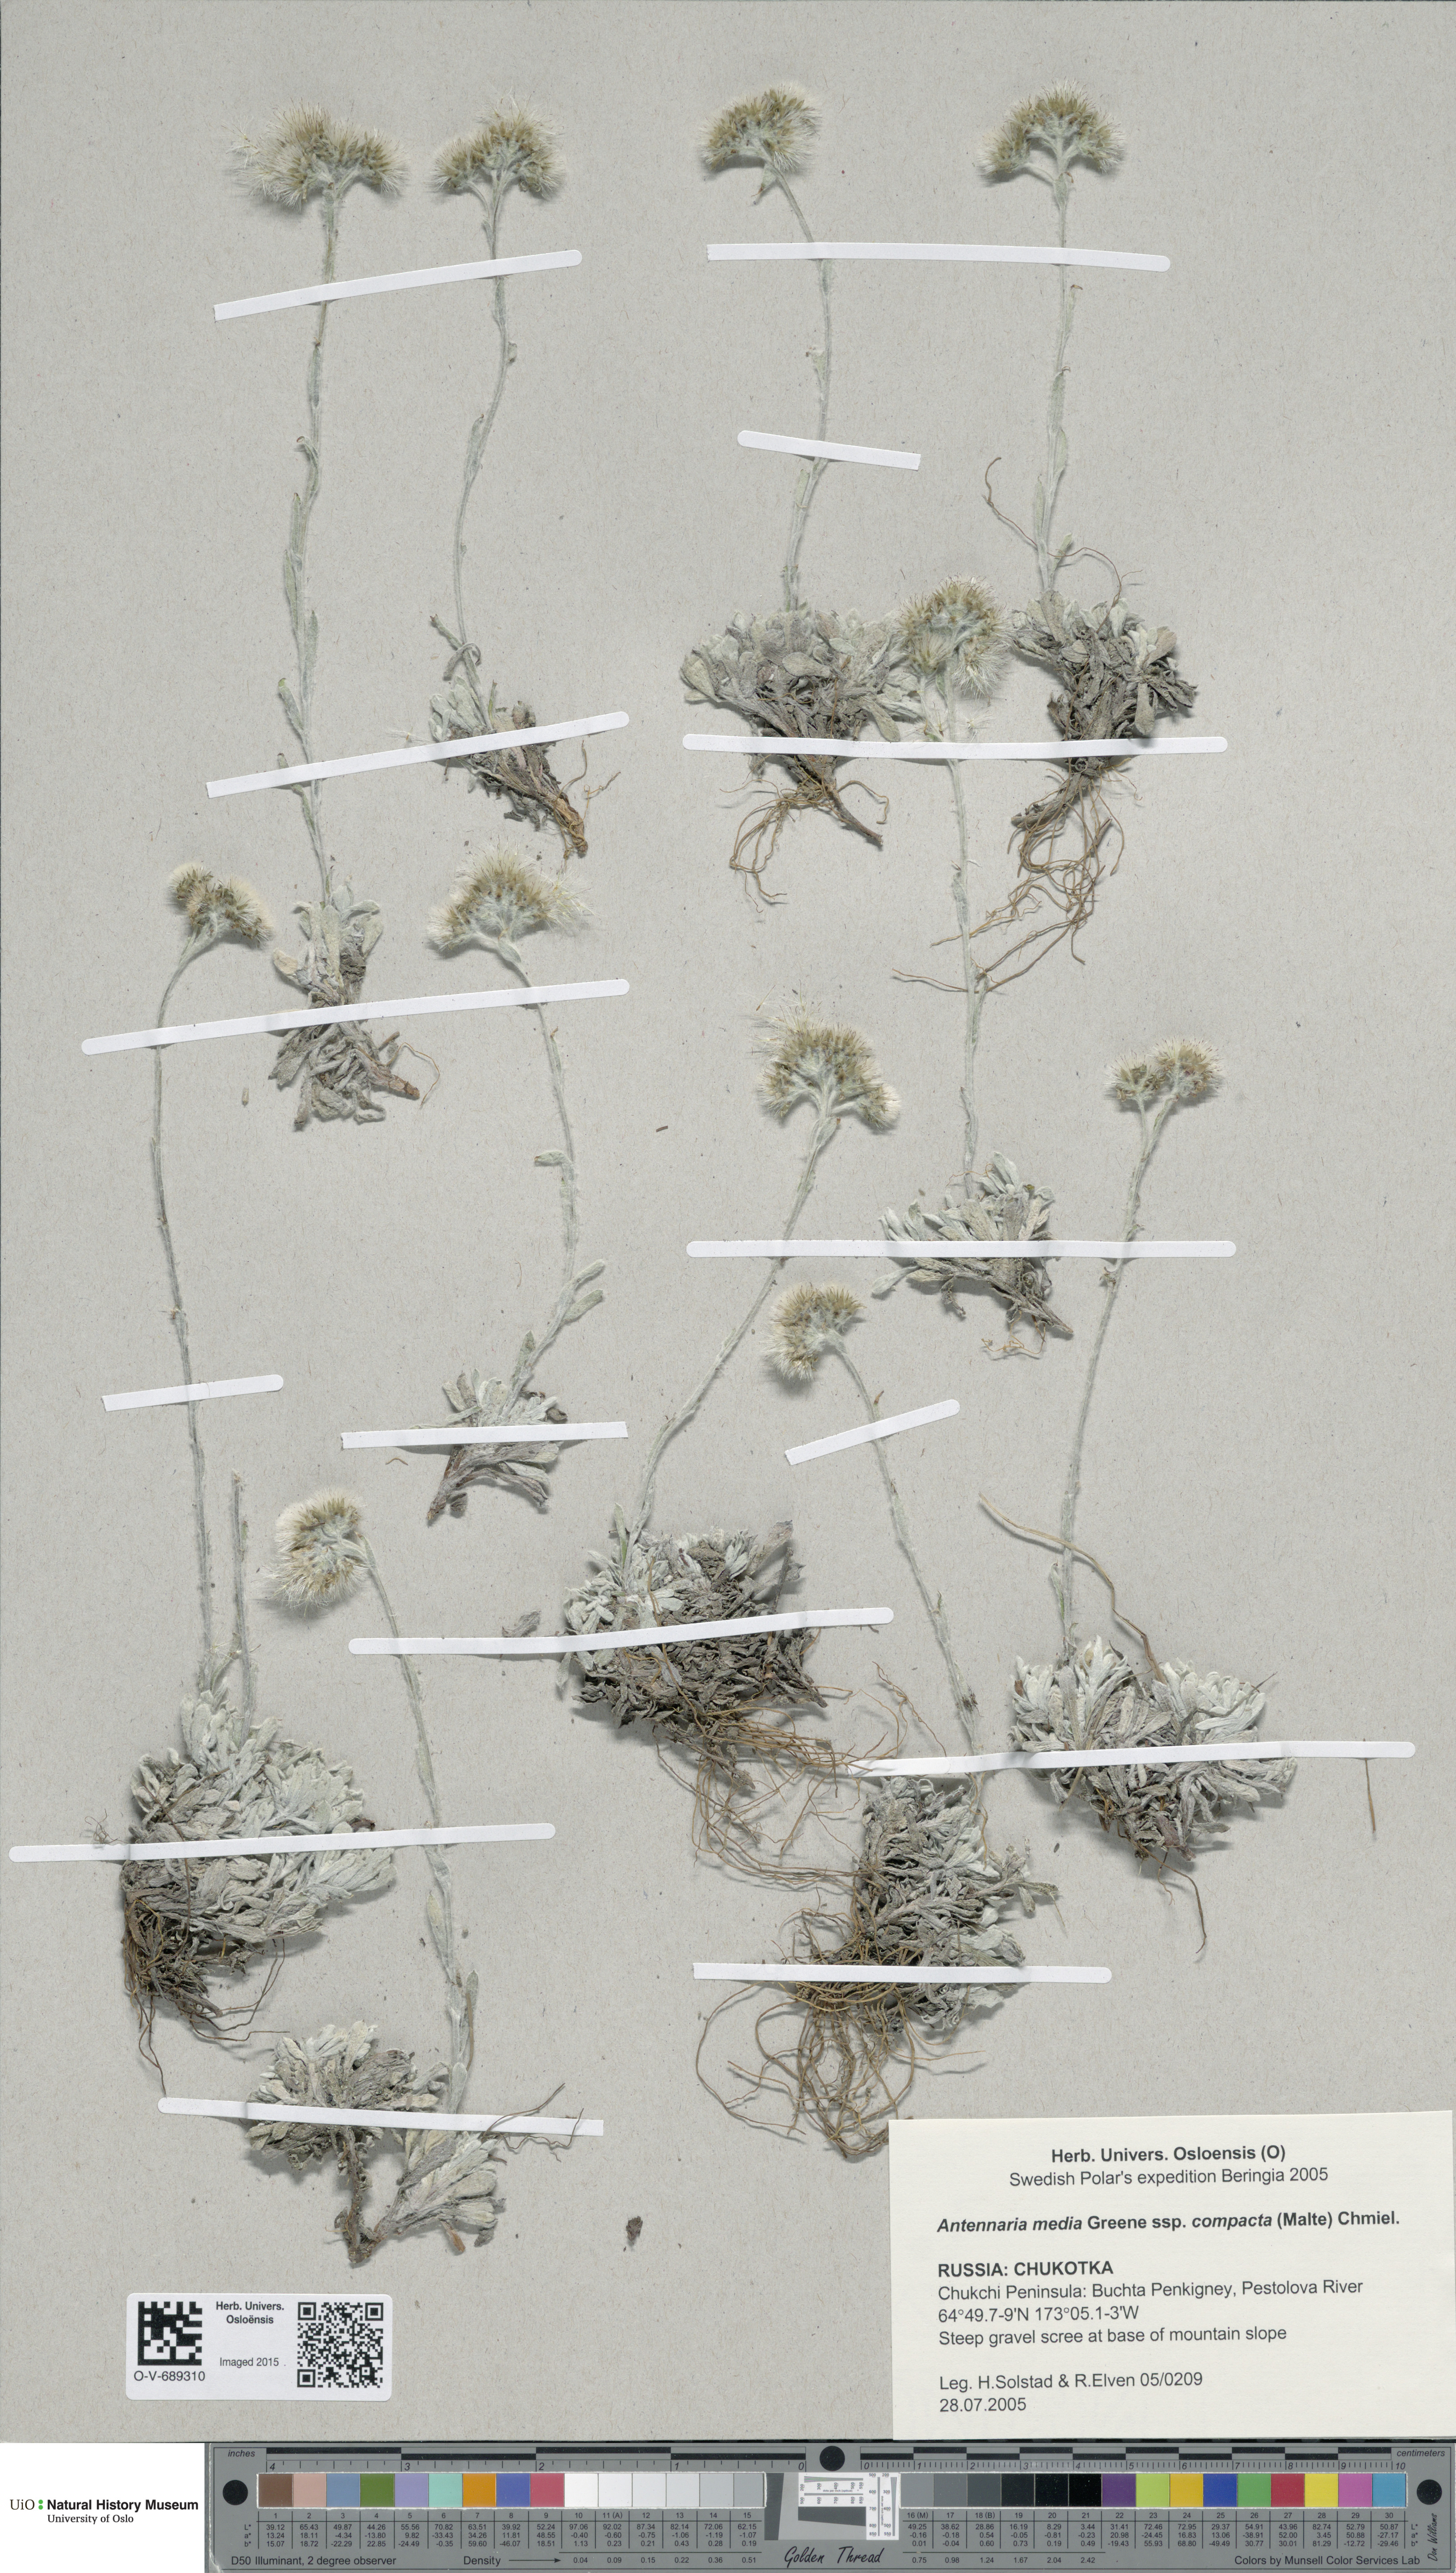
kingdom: Plantae
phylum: Tracheophyta
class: Magnoliopsida
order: Asterales
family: Asteraceae
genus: Antennaria
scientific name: Antennaria alpina
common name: Alpine pussytoes
